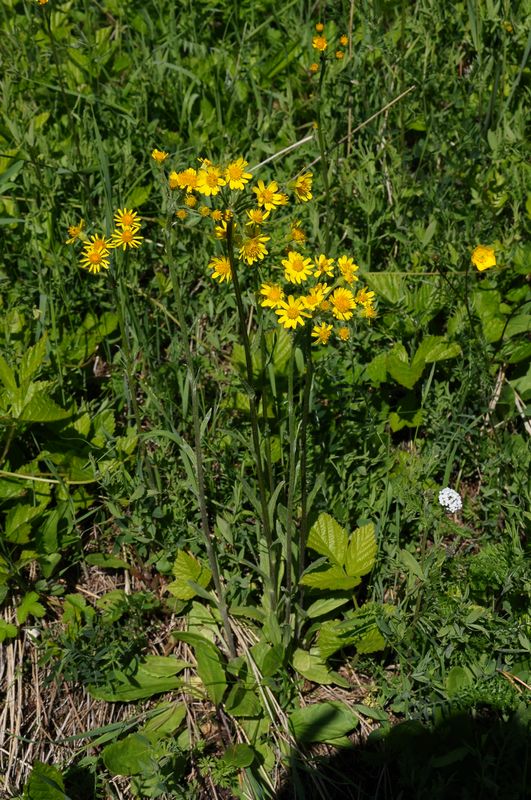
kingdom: Plantae
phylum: Tracheophyta
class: Magnoliopsida
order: Asterales
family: Asteraceae
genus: Tephroseris
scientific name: Tephroseris integrifolia
